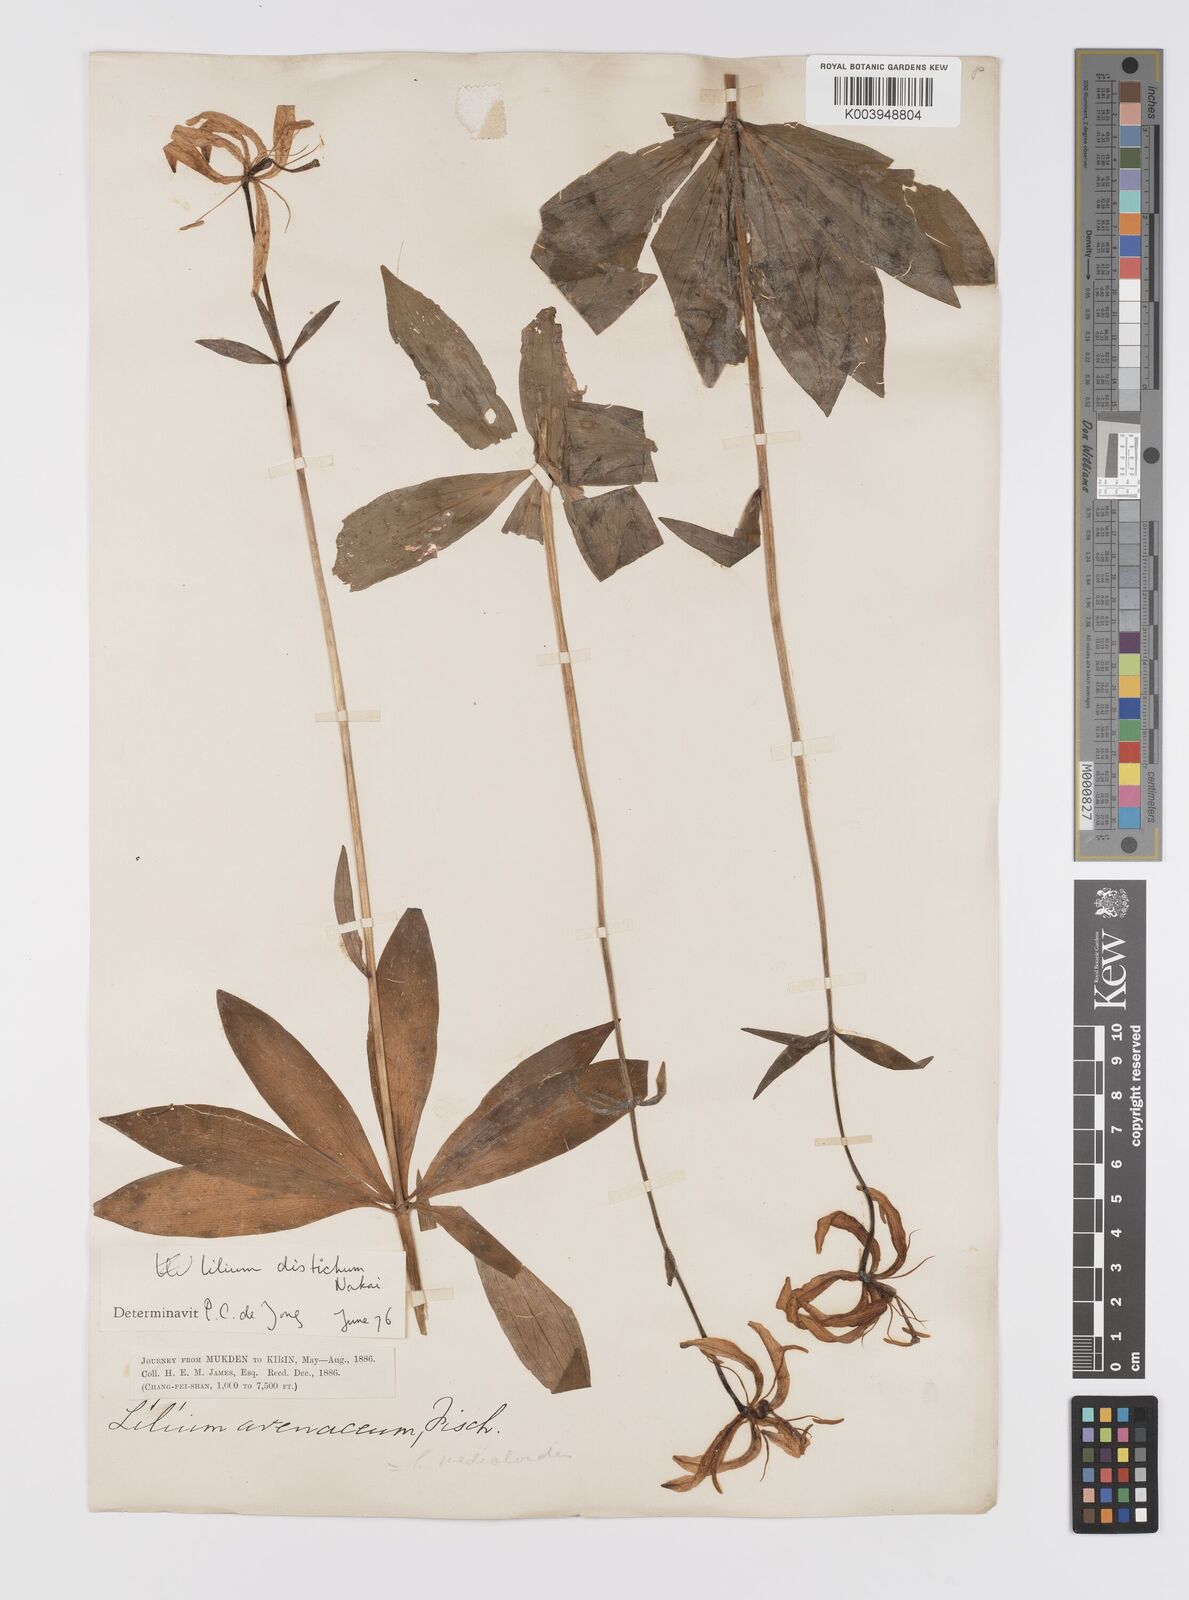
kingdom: Plantae
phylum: Tracheophyta
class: Liliopsida
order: Liliales
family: Liliaceae
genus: Lilium
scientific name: Lilium distichum
